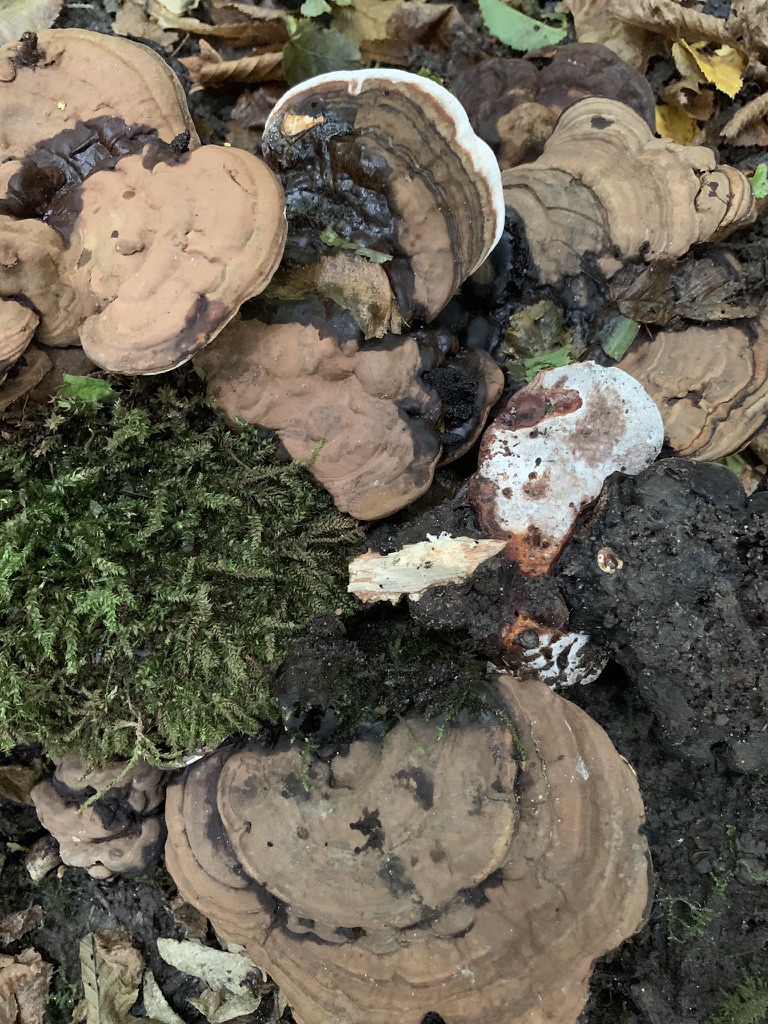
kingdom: Fungi
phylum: Basidiomycota
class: Agaricomycetes
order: Polyporales
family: Polyporaceae
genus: Ganoderma
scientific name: Ganoderma applanatum
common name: flad lakporesvamp
